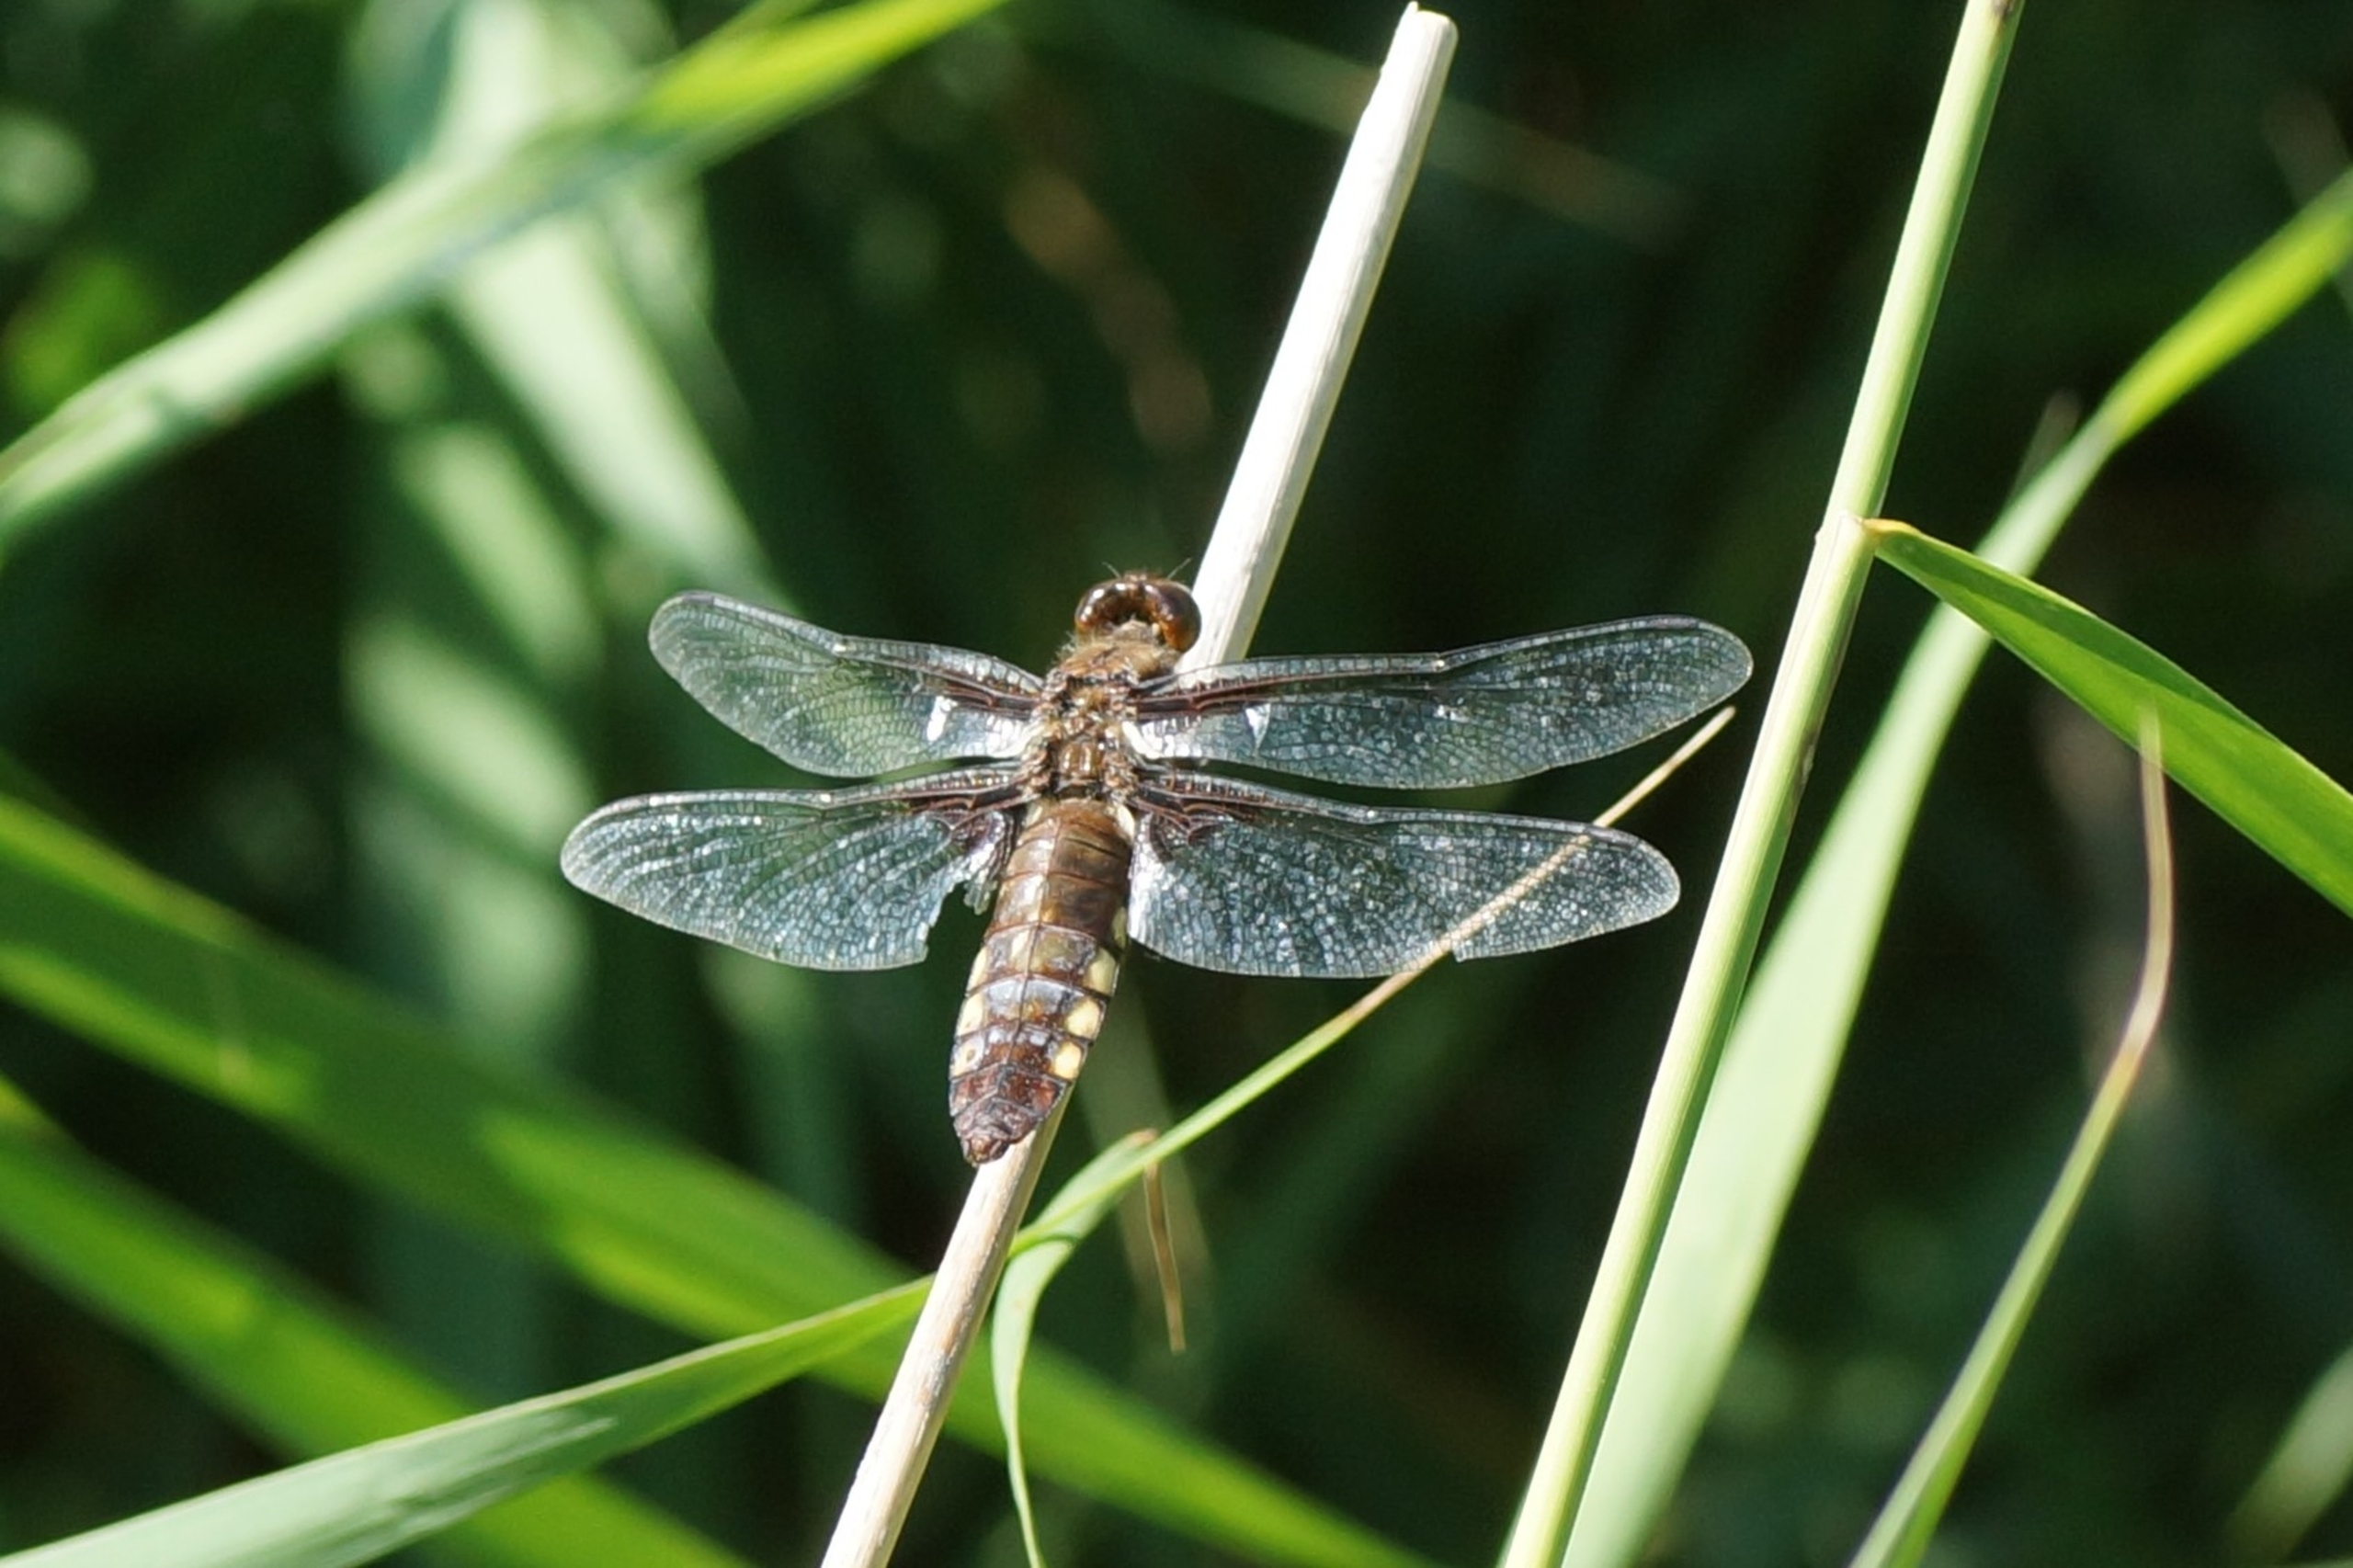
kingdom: Animalia
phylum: Arthropoda
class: Insecta
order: Odonata
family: Libellulidae
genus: Libellula
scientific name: Libellula depressa
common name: Blå libel
